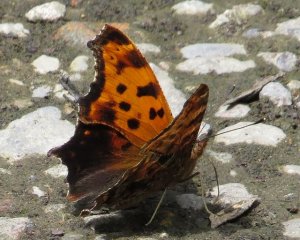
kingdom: Animalia
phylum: Arthropoda
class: Insecta
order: Lepidoptera
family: Nymphalidae
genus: Polygonia
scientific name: Polygonia comma
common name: Eastern Comma
